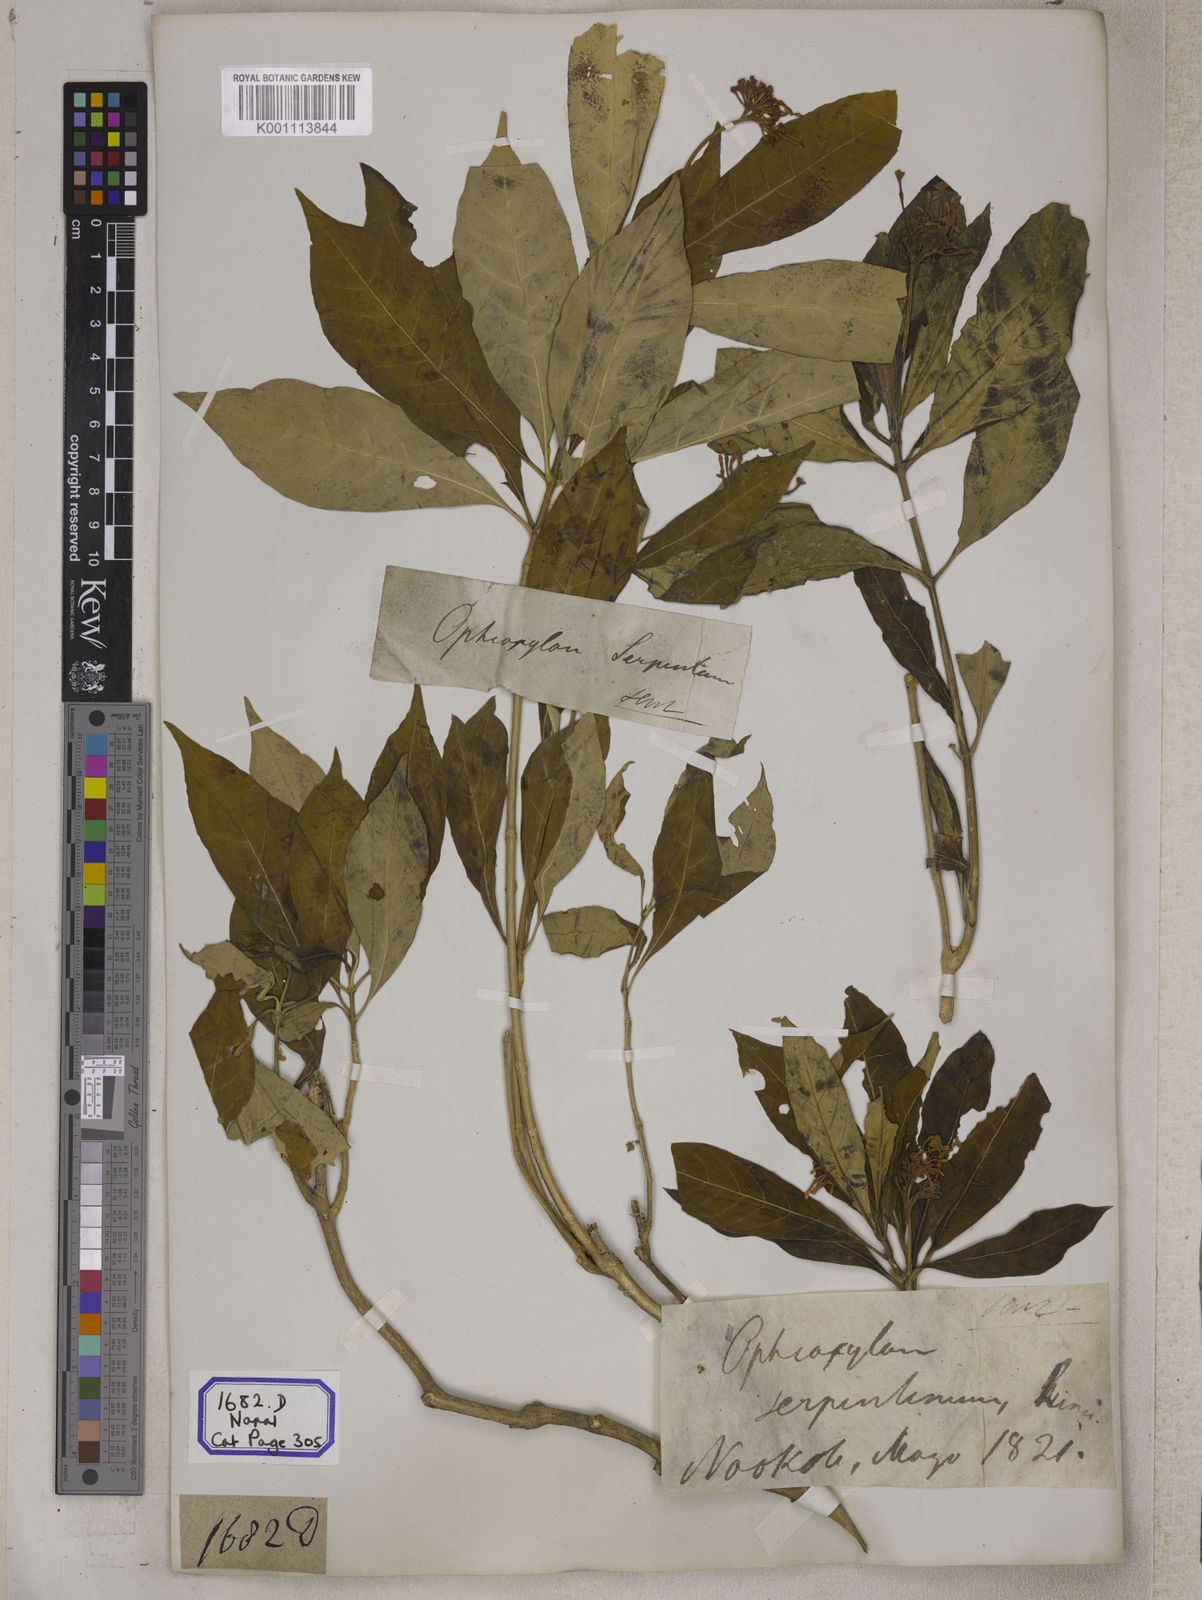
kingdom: Plantae
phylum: Tracheophyta
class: Magnoliopsida
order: Gentianales
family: Apocynaceae
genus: Rauvolfia
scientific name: Rauvolfia serpentina
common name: Ajmaline
